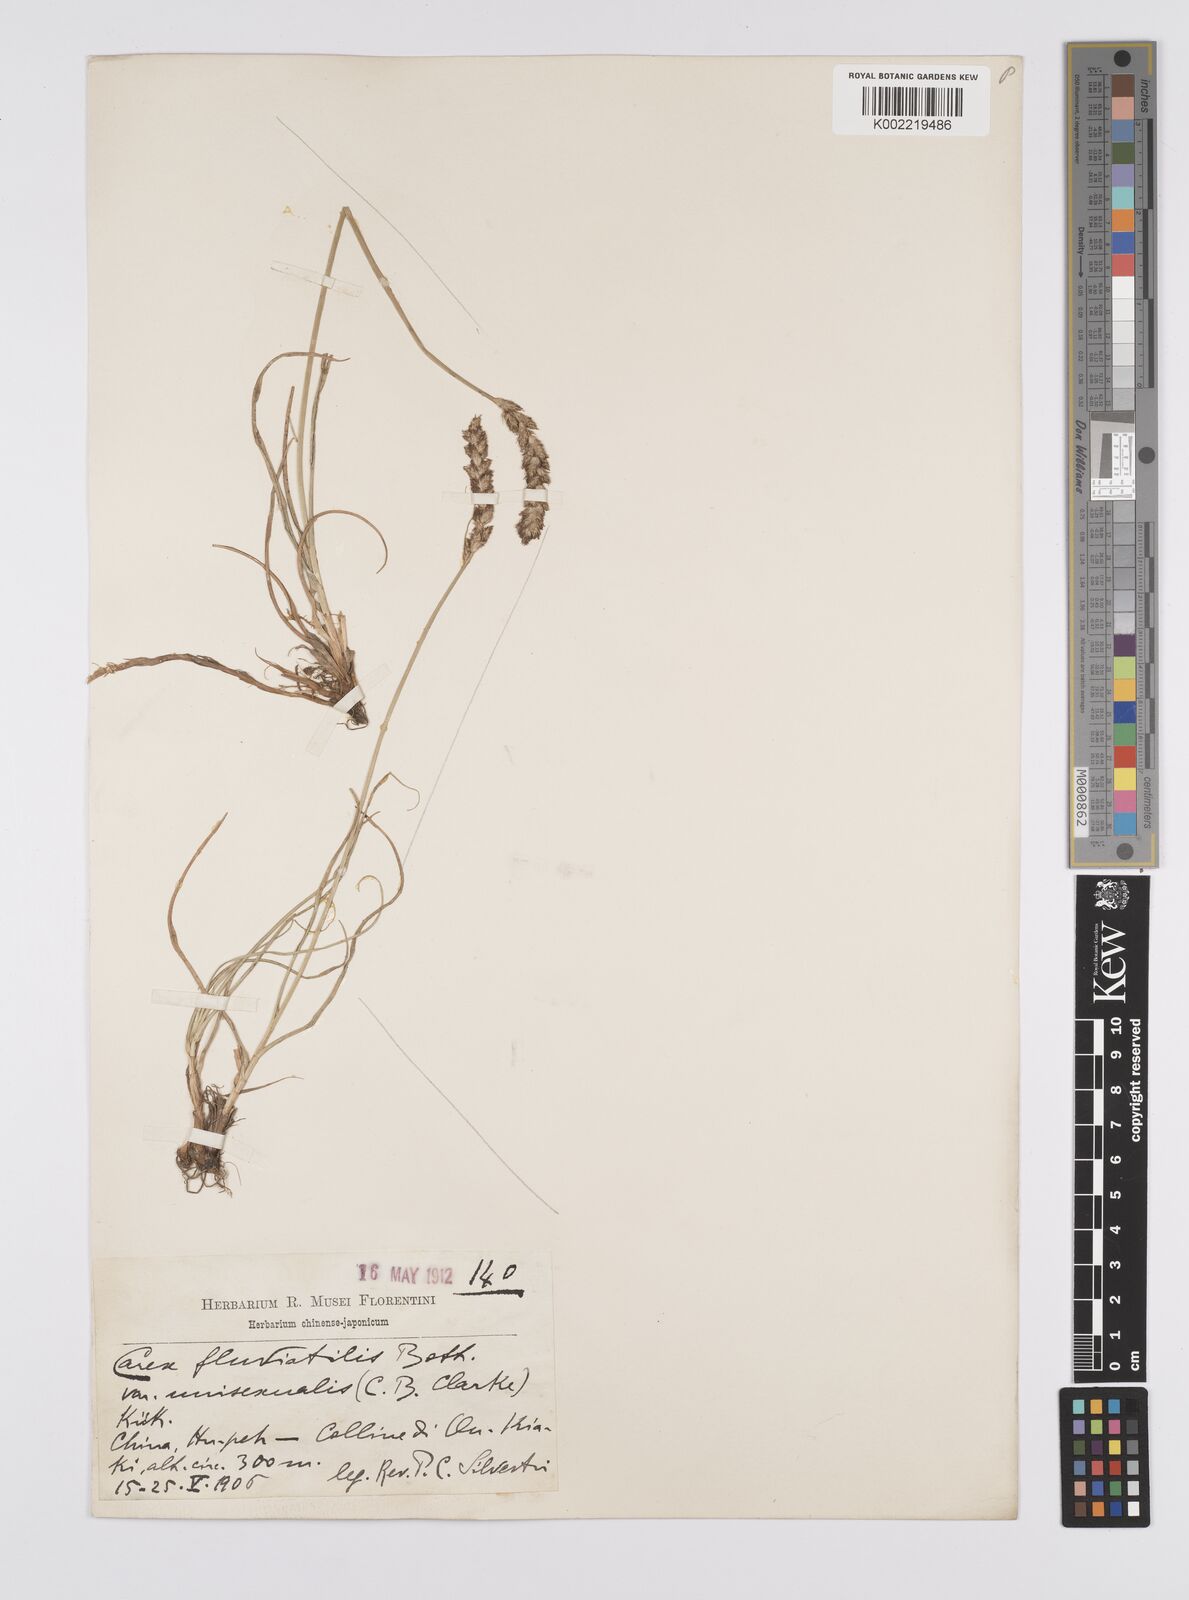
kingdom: Plantae
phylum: Tracheophyta
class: Liliopsida
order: Poales
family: Cyperaceae
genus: Carex
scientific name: Carex unisexualis
